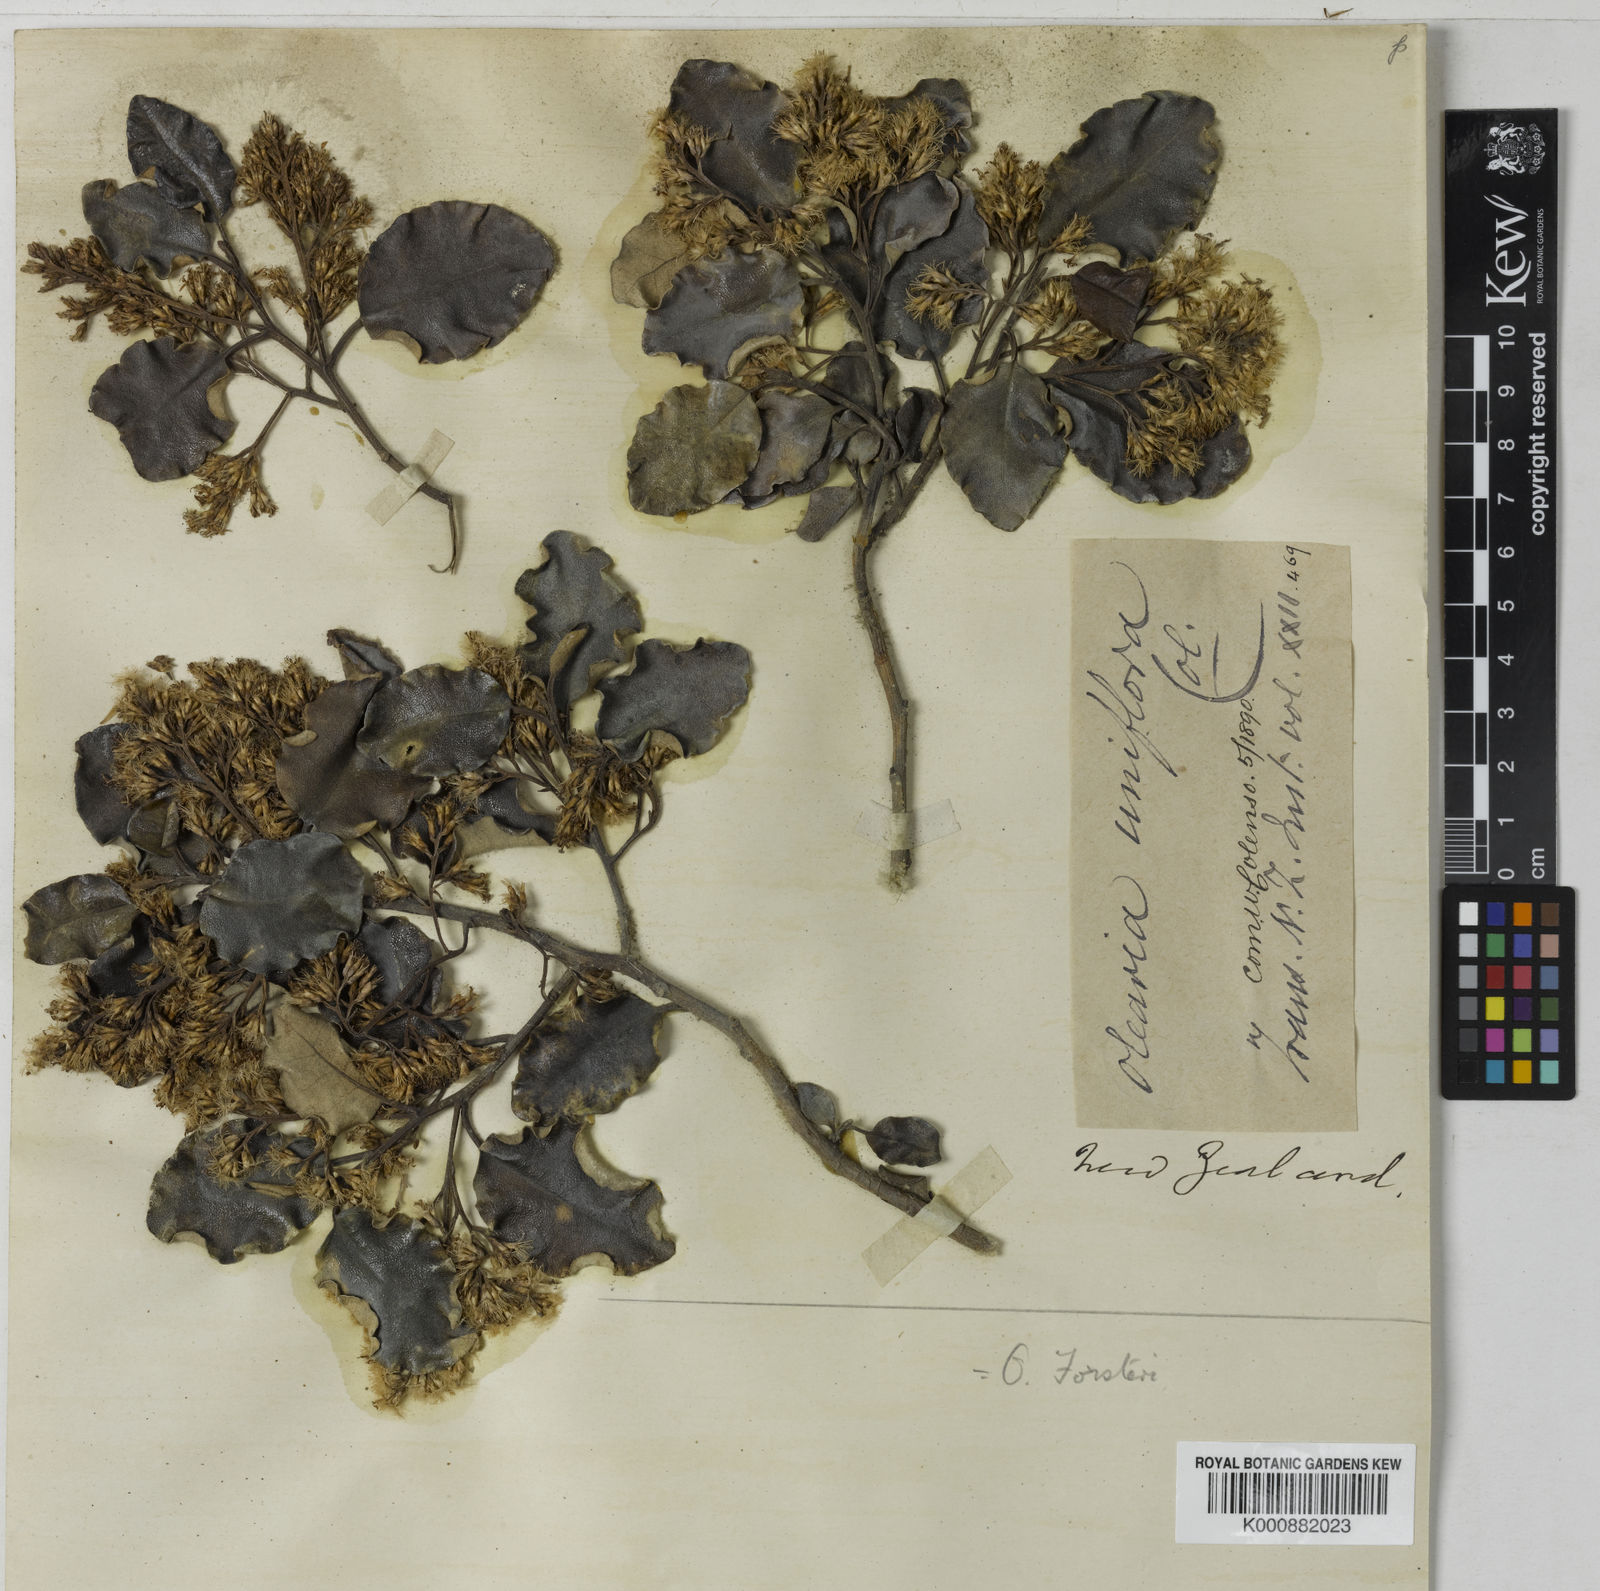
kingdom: Plantae
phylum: Tracheophyta
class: Magnoliopsida
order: Asterales
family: Asteraceae
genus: Olearia
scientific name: Olearia paniculata
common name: Akiraho
